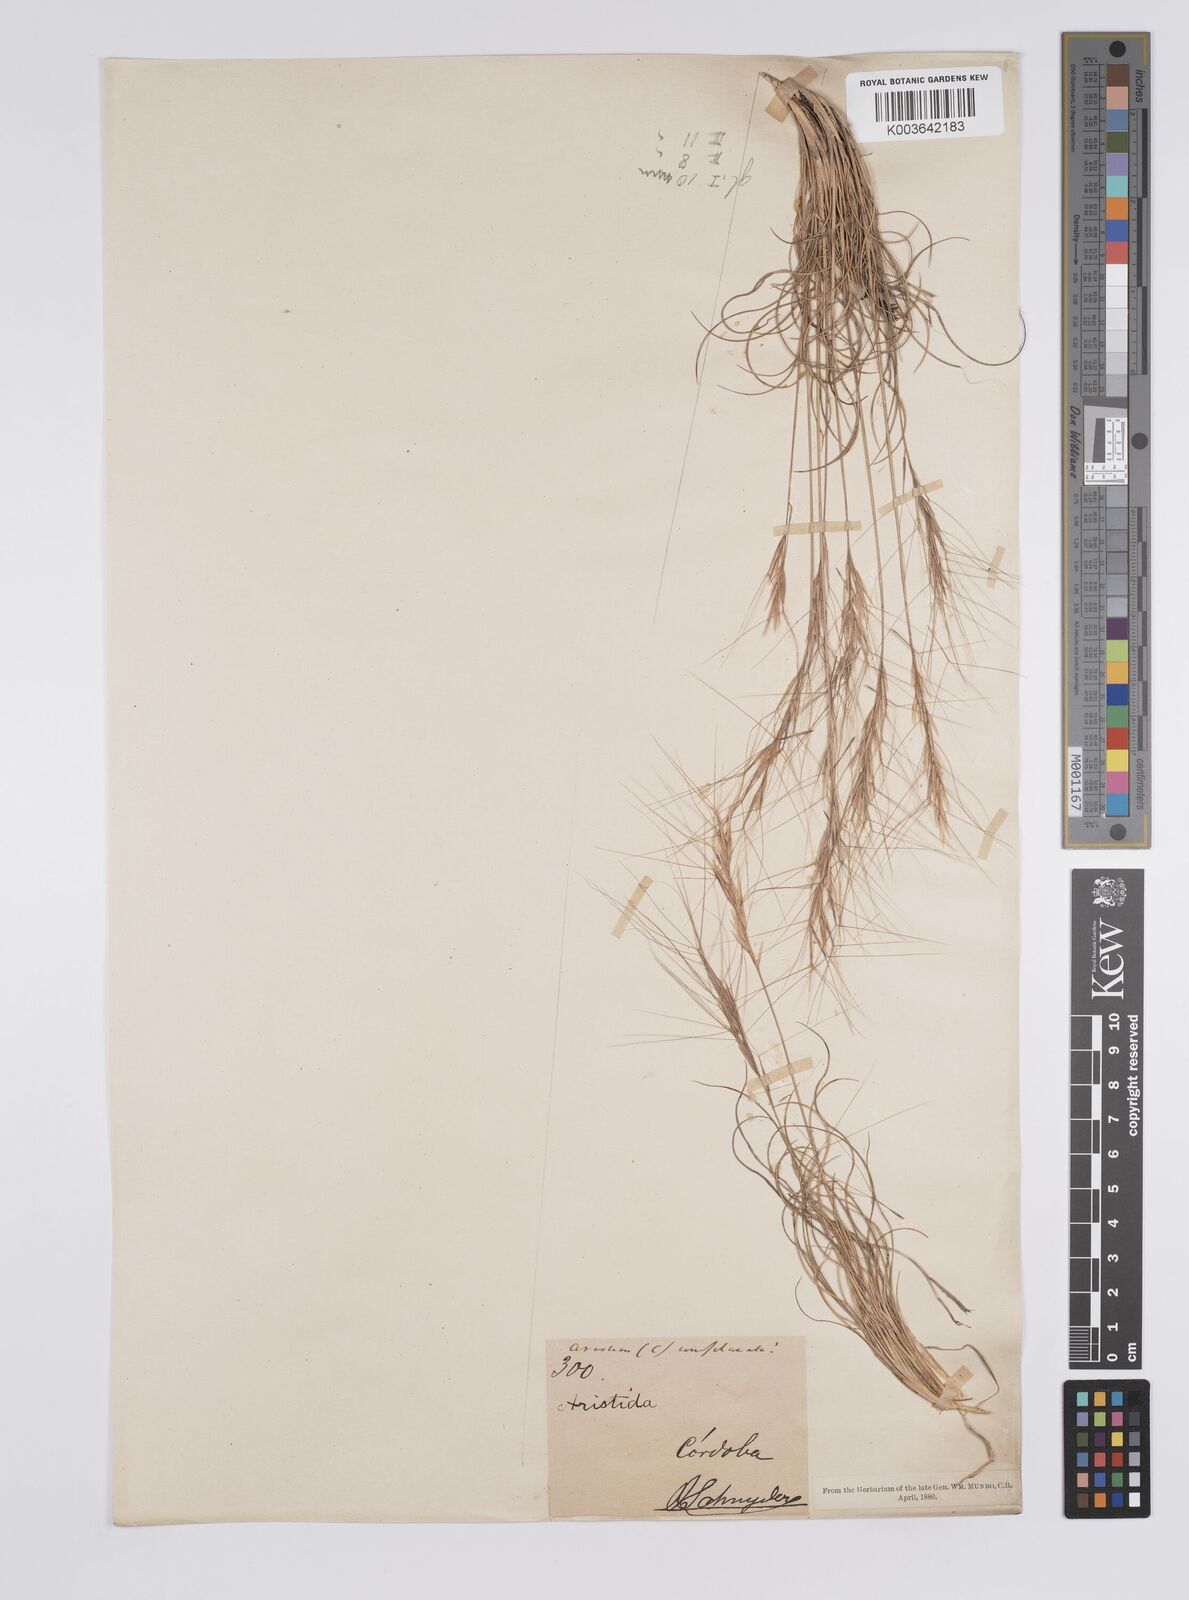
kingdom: Plantae
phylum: Tracheophyta
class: Liliopsida
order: Poales
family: Poaceae
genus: Aristida
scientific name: Aristida
